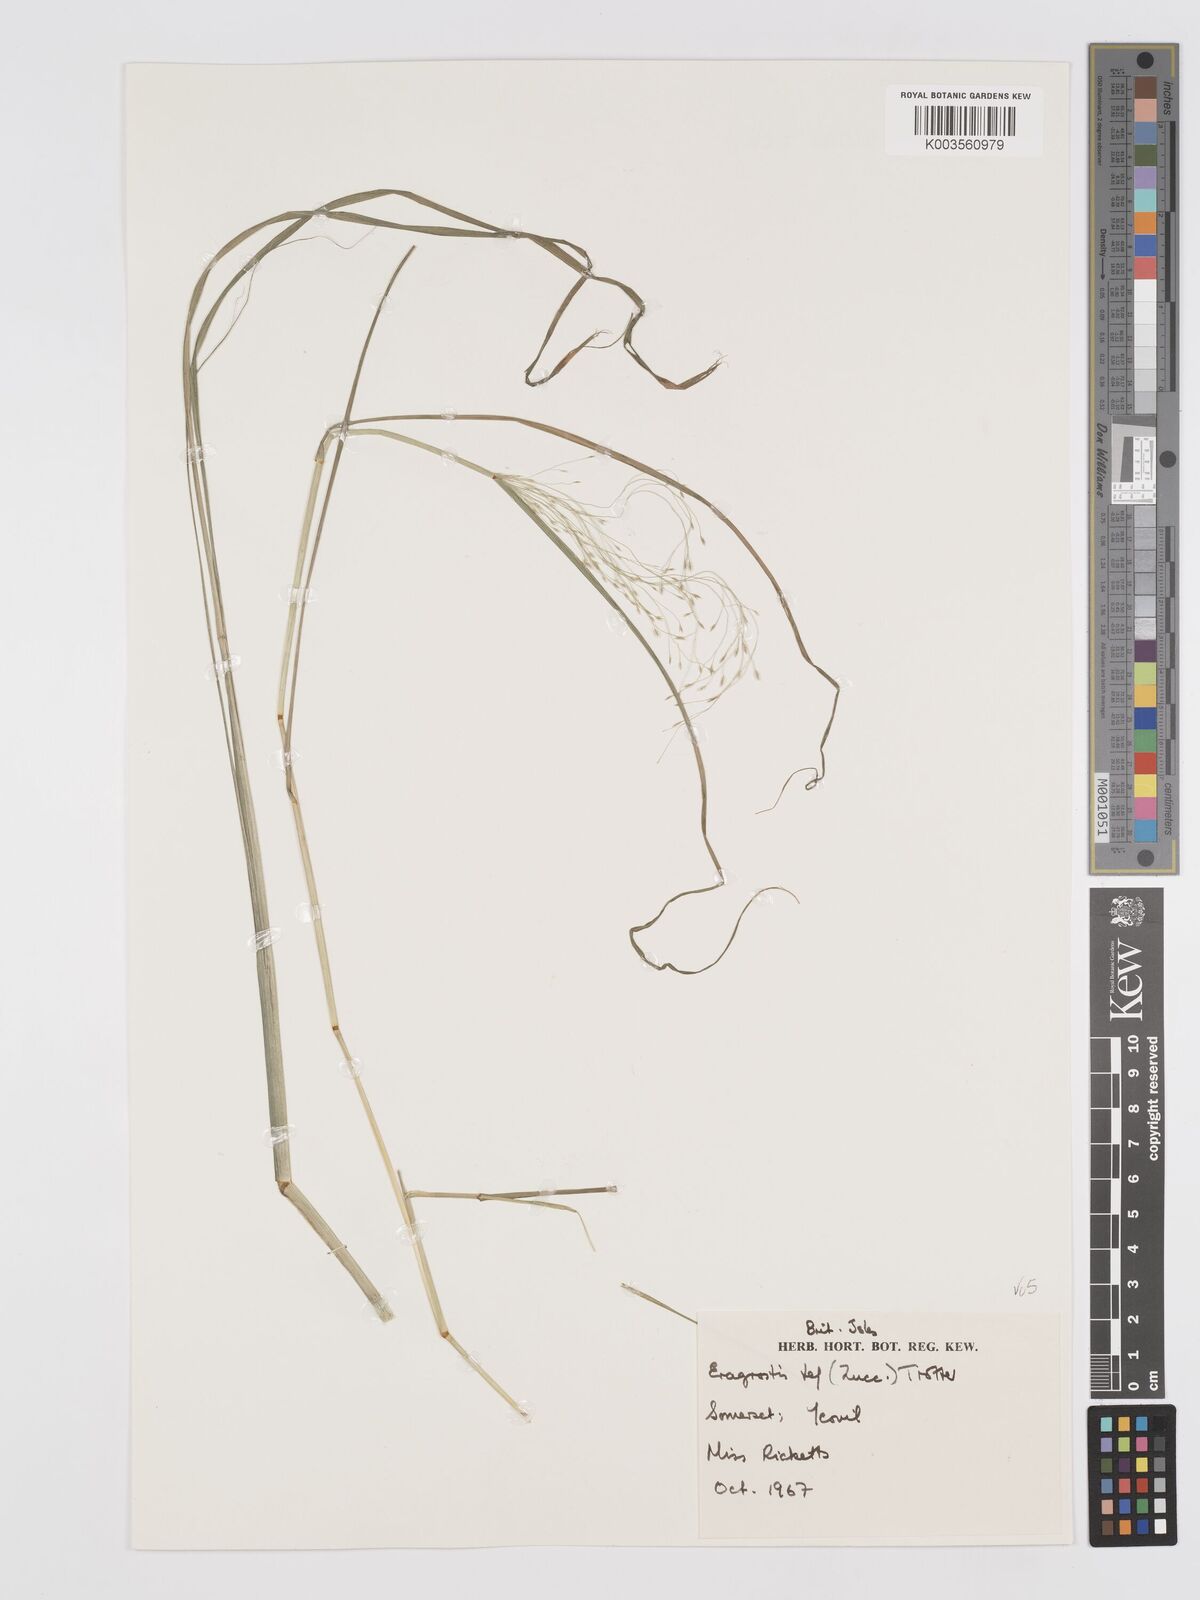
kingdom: Plantae
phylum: Tracheophyta
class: Liliopsida
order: Poales
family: Poaceae
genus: Eragrostis
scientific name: Eragrostis tef
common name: Teff
